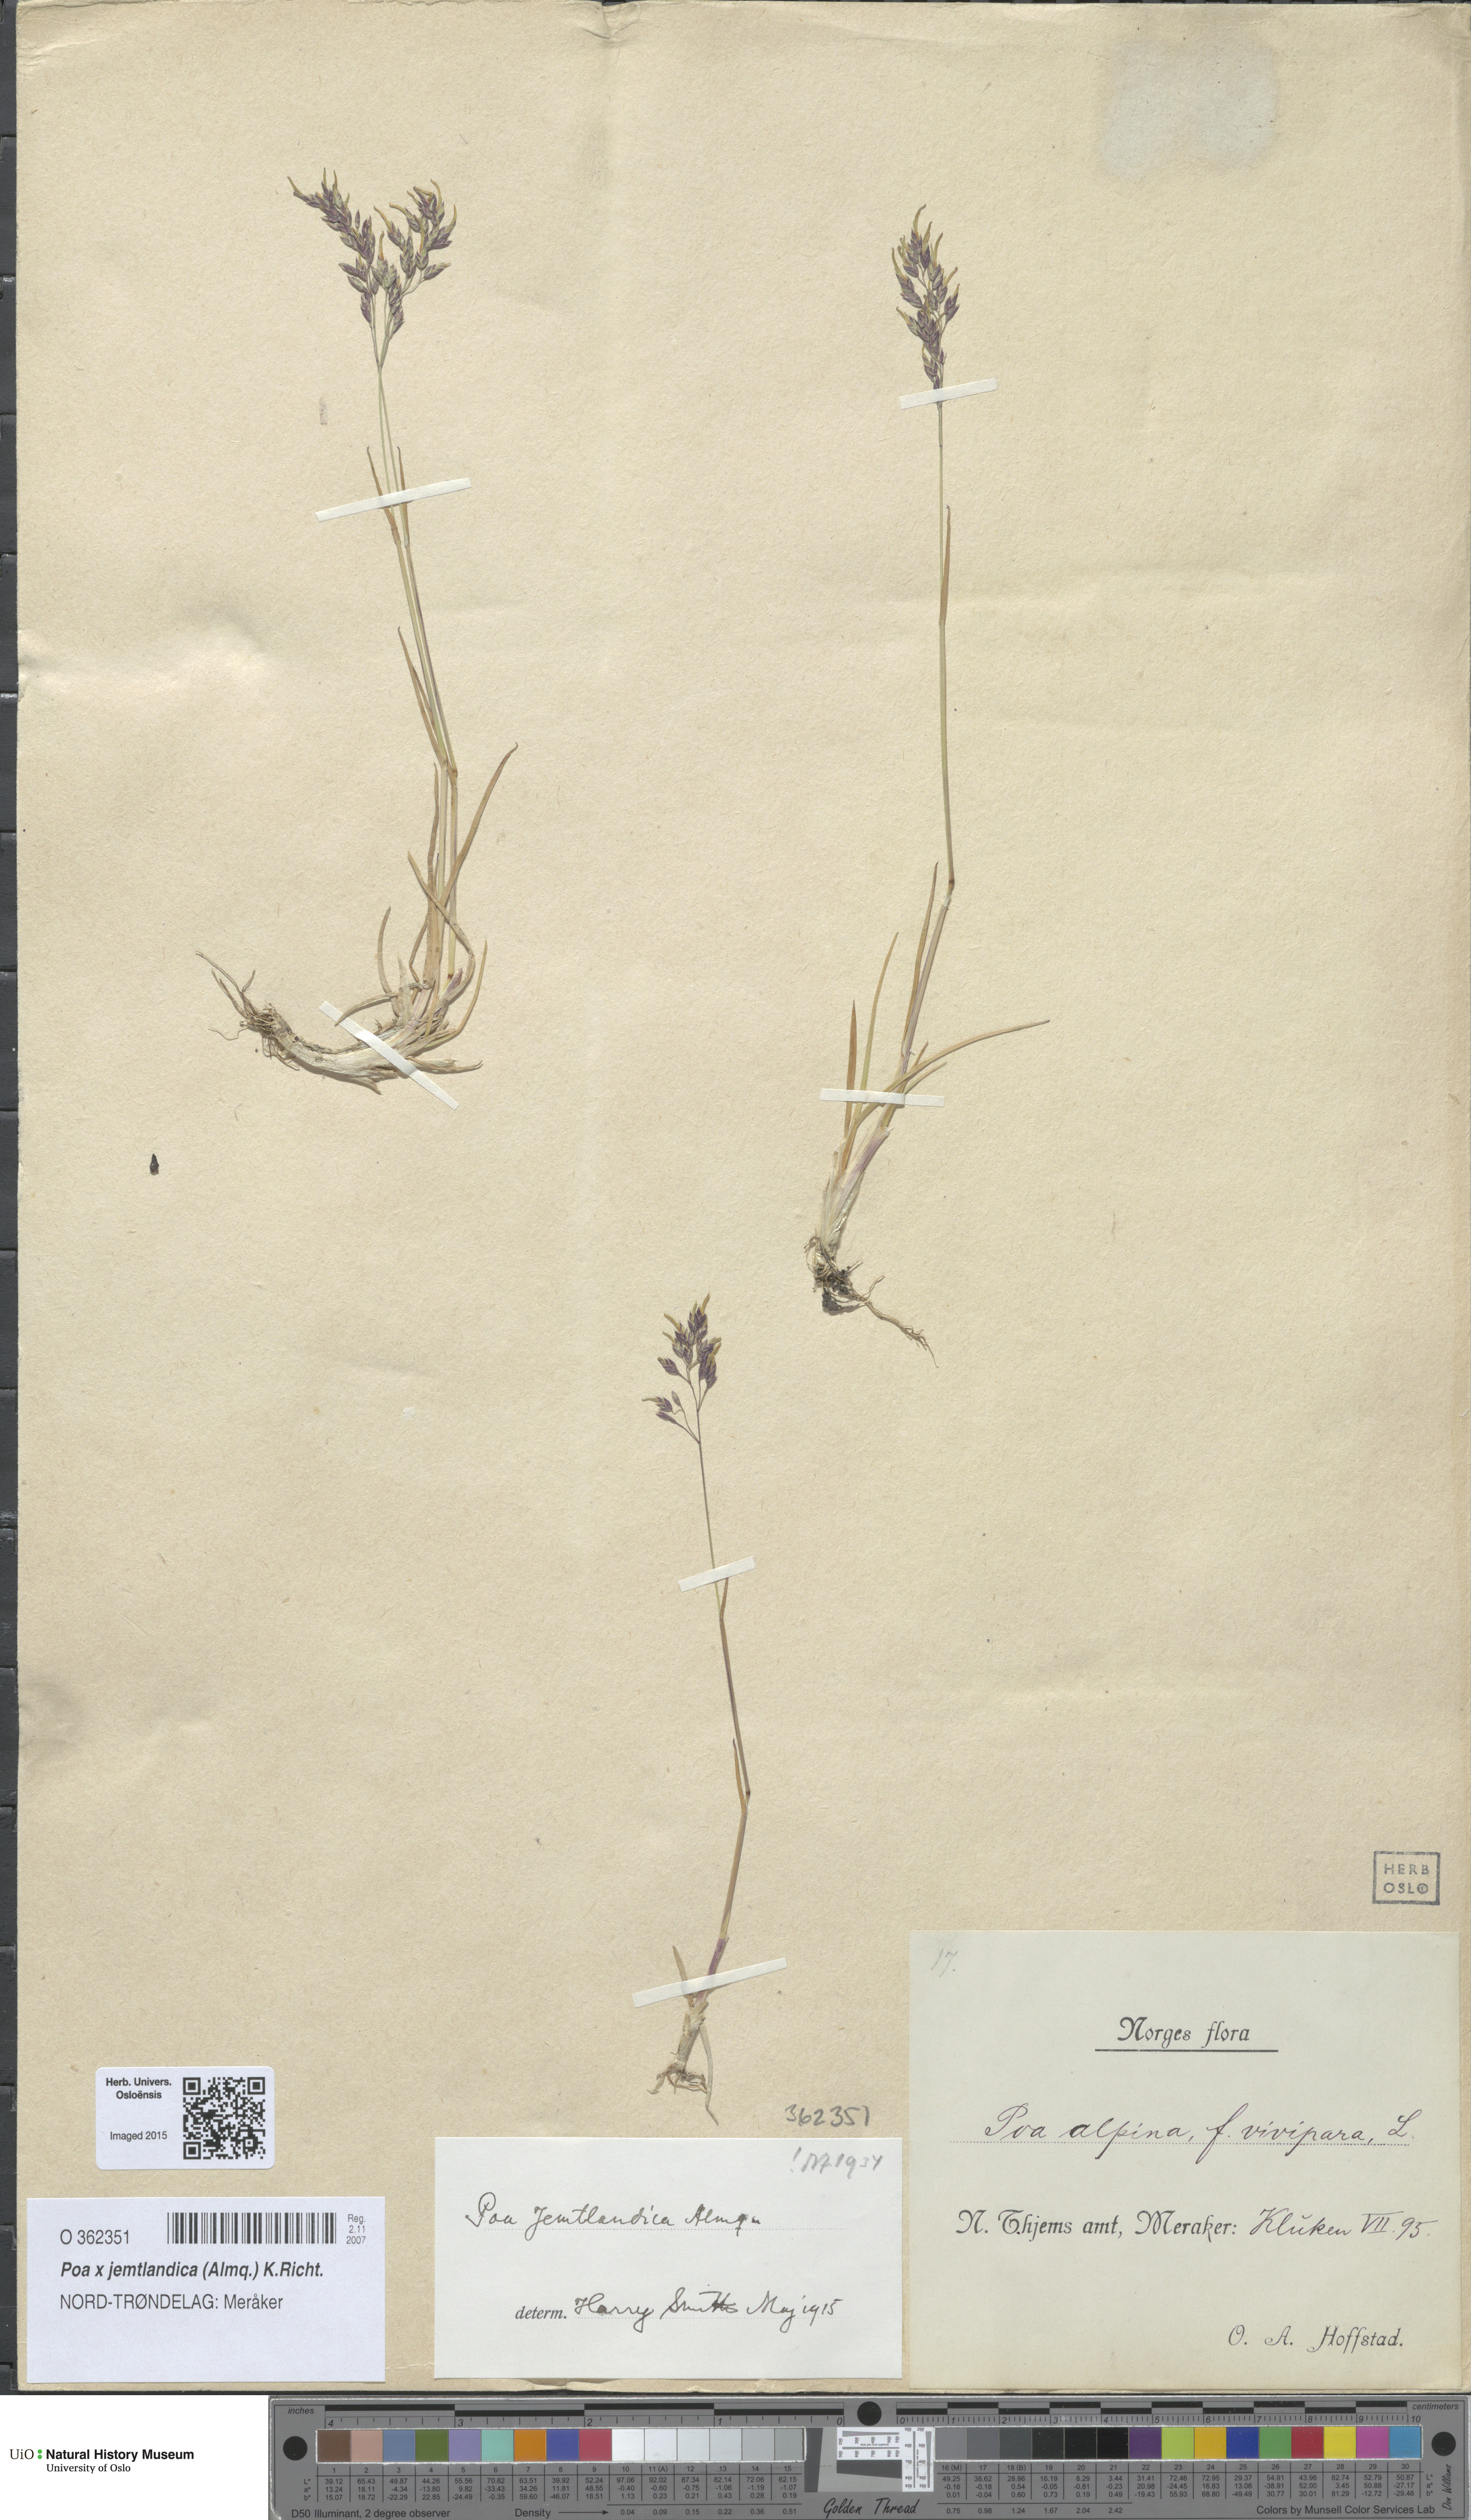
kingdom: Plantae
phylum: Tracheophyta
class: Liliopsida
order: Poales
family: Poaceae
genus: Poa
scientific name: Poa jemtlandica
